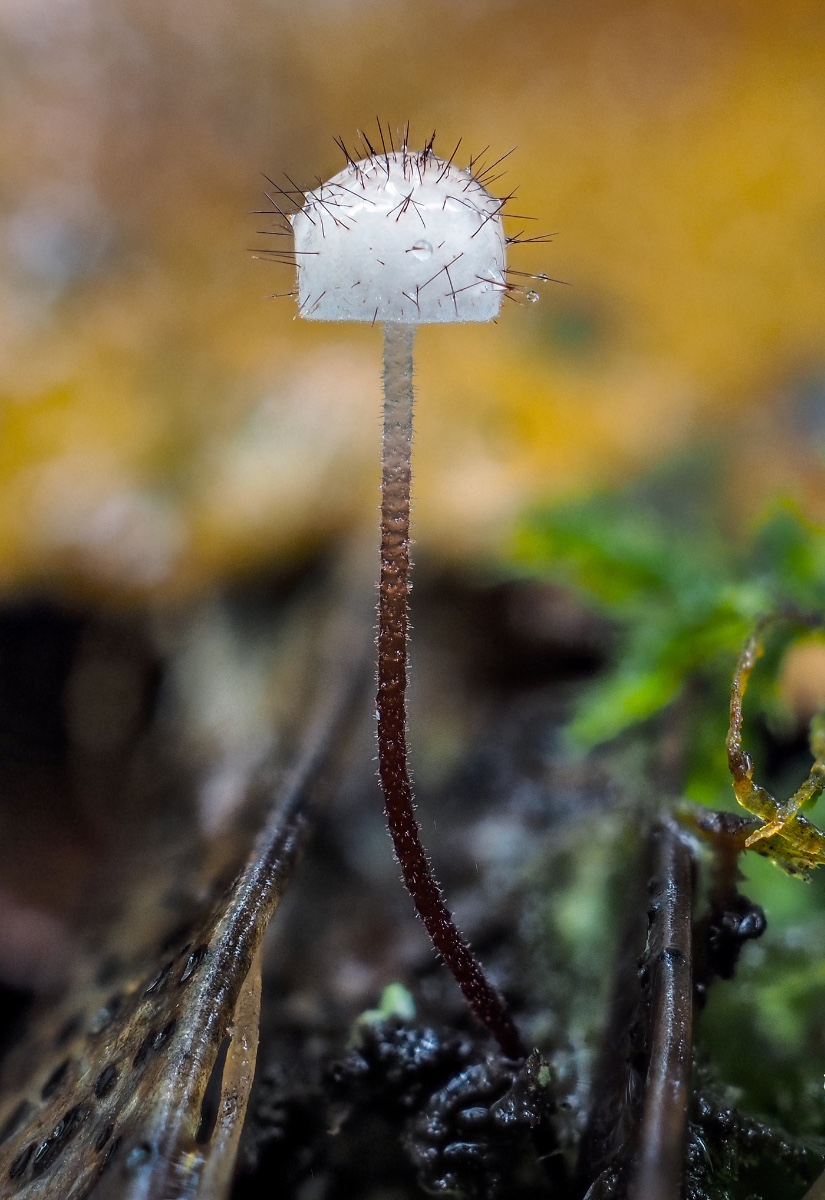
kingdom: Fungi
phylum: Basidiomycota
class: Agaricomycetes
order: Agaricales
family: Marasmiaceae
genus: Marasmius
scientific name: Marasmius hudsonii
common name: børstehåret bruskhat
